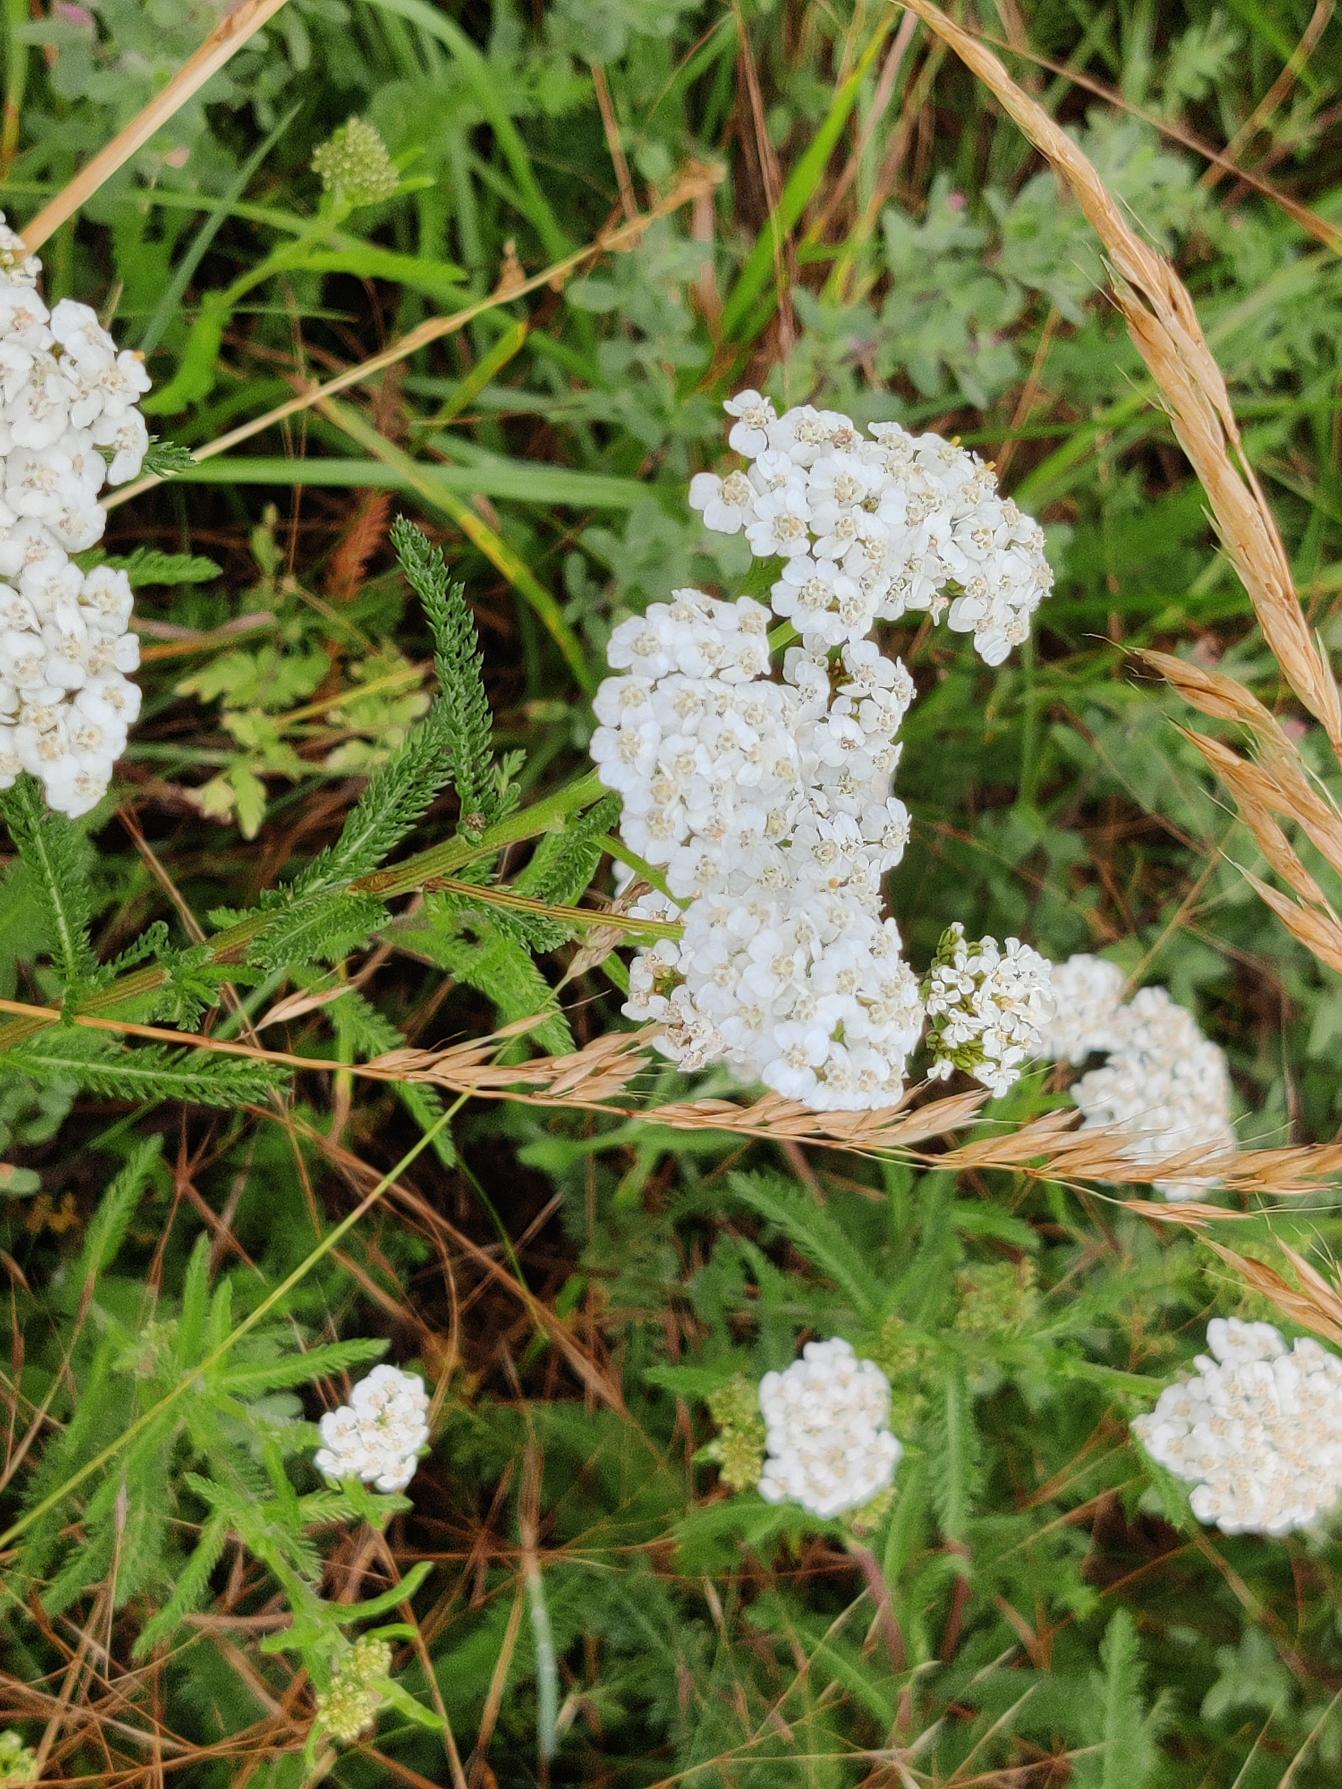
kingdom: Plantae
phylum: Tracheophyta
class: Magnoliopsida
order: Asterales
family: Asteraceae
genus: Achillea
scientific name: Achillea millefolium
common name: Almindelig røllike
